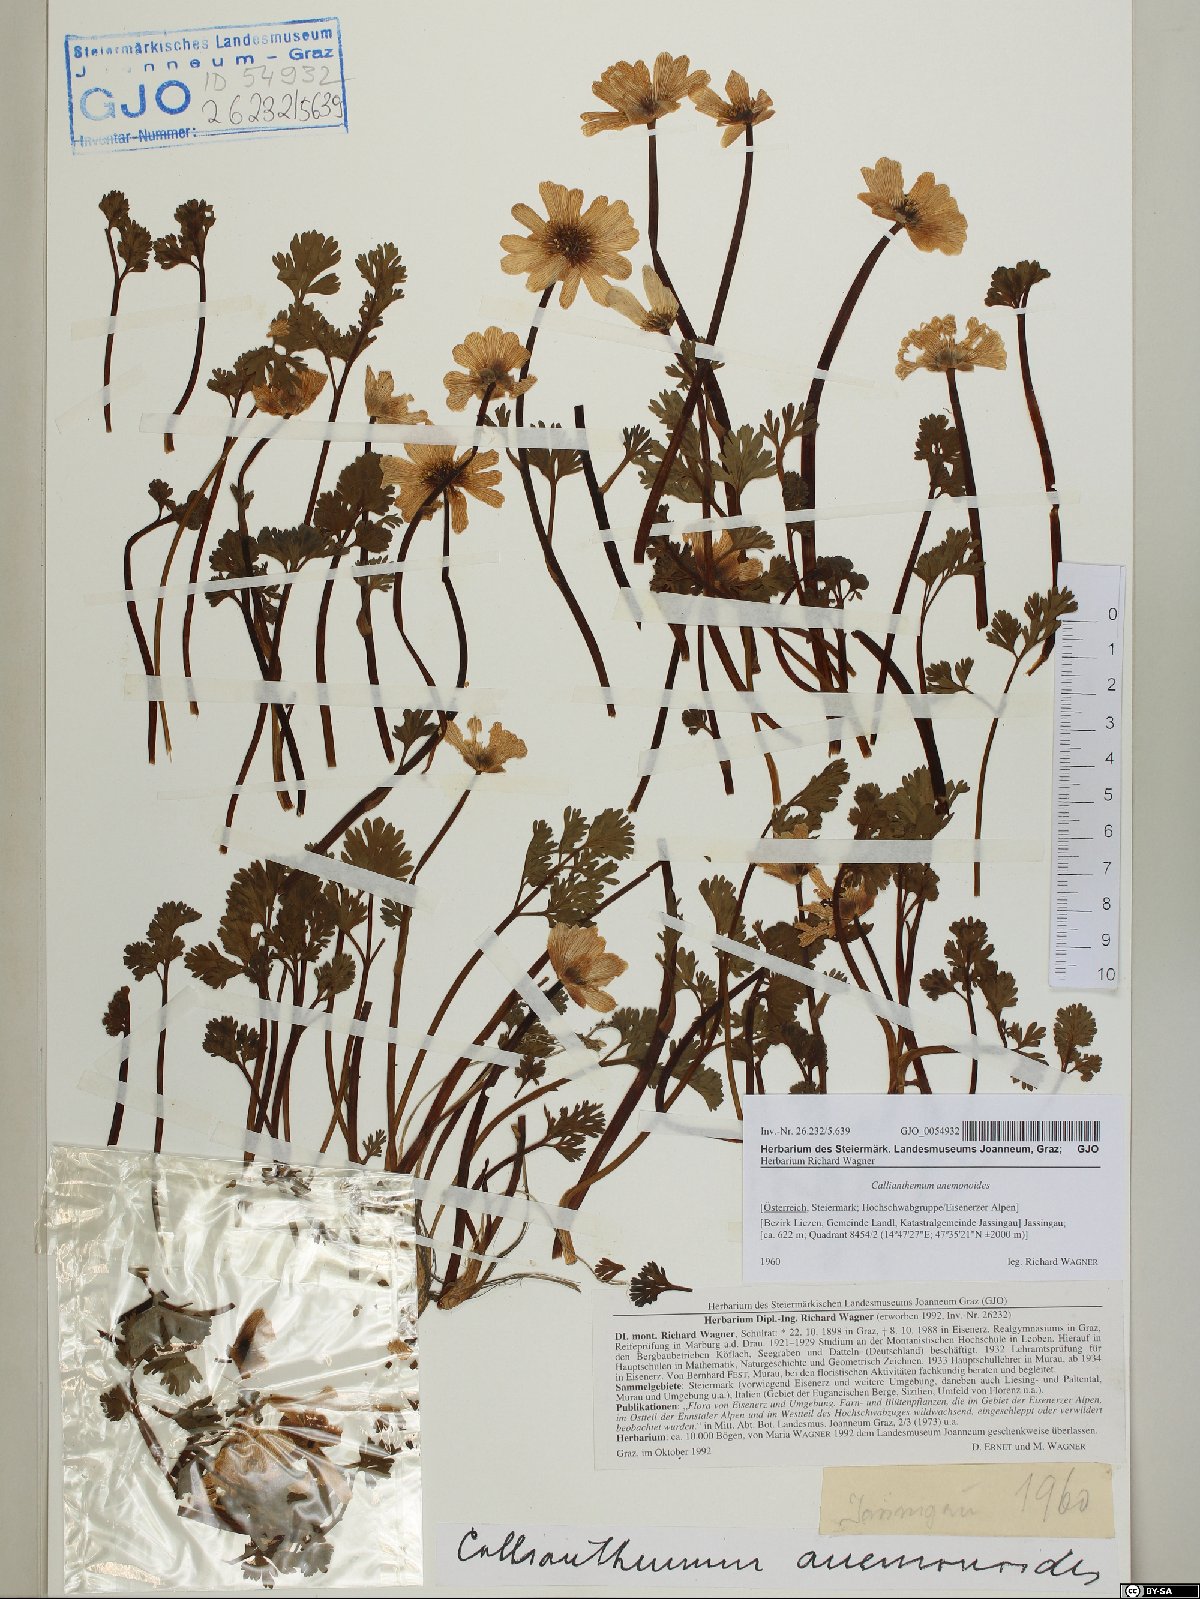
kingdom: Plantae
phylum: Tracheophyta
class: Magnoliopsida
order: Ranunculales
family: Ranunculaceae
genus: Callianthemum
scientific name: Callianthemum anemonoides
